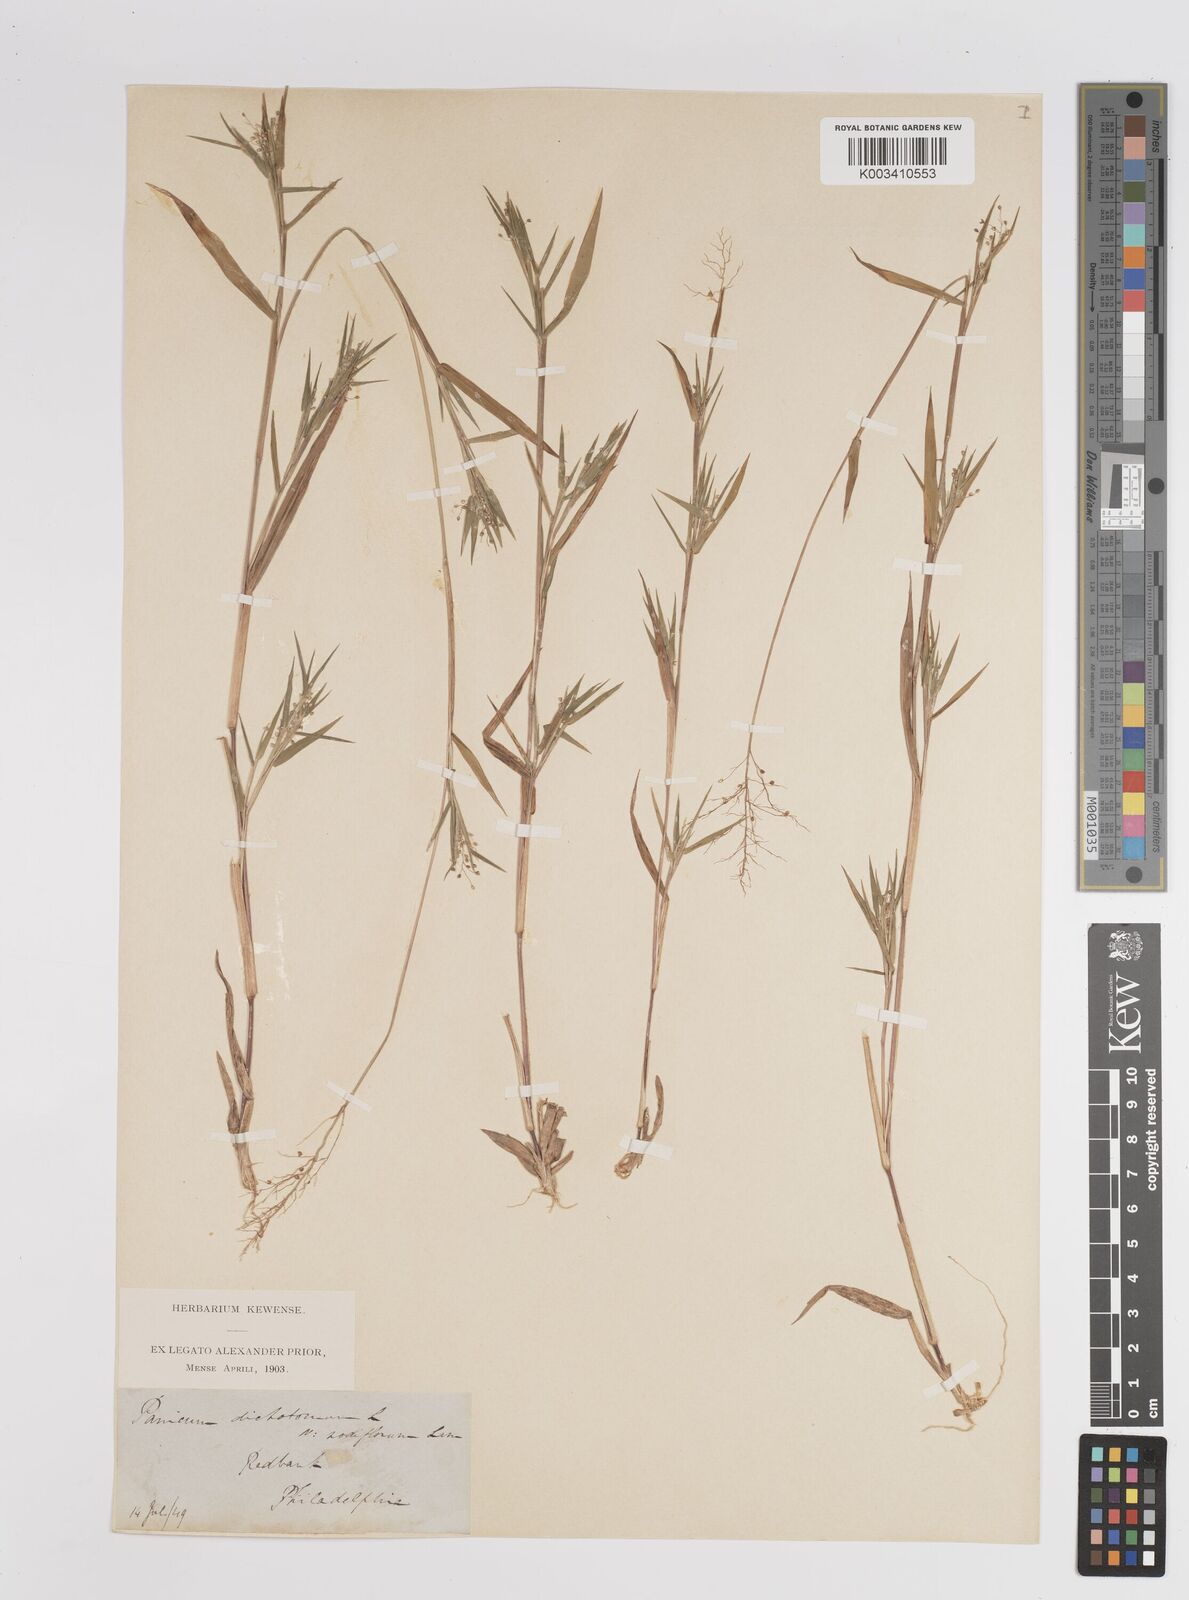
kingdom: Plantae
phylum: Tracheophyta
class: Liliopsida
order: Poales
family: Poaceae
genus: Dichanthelium
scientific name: Dichanthelium dichotomum
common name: Cypress panicgrass
